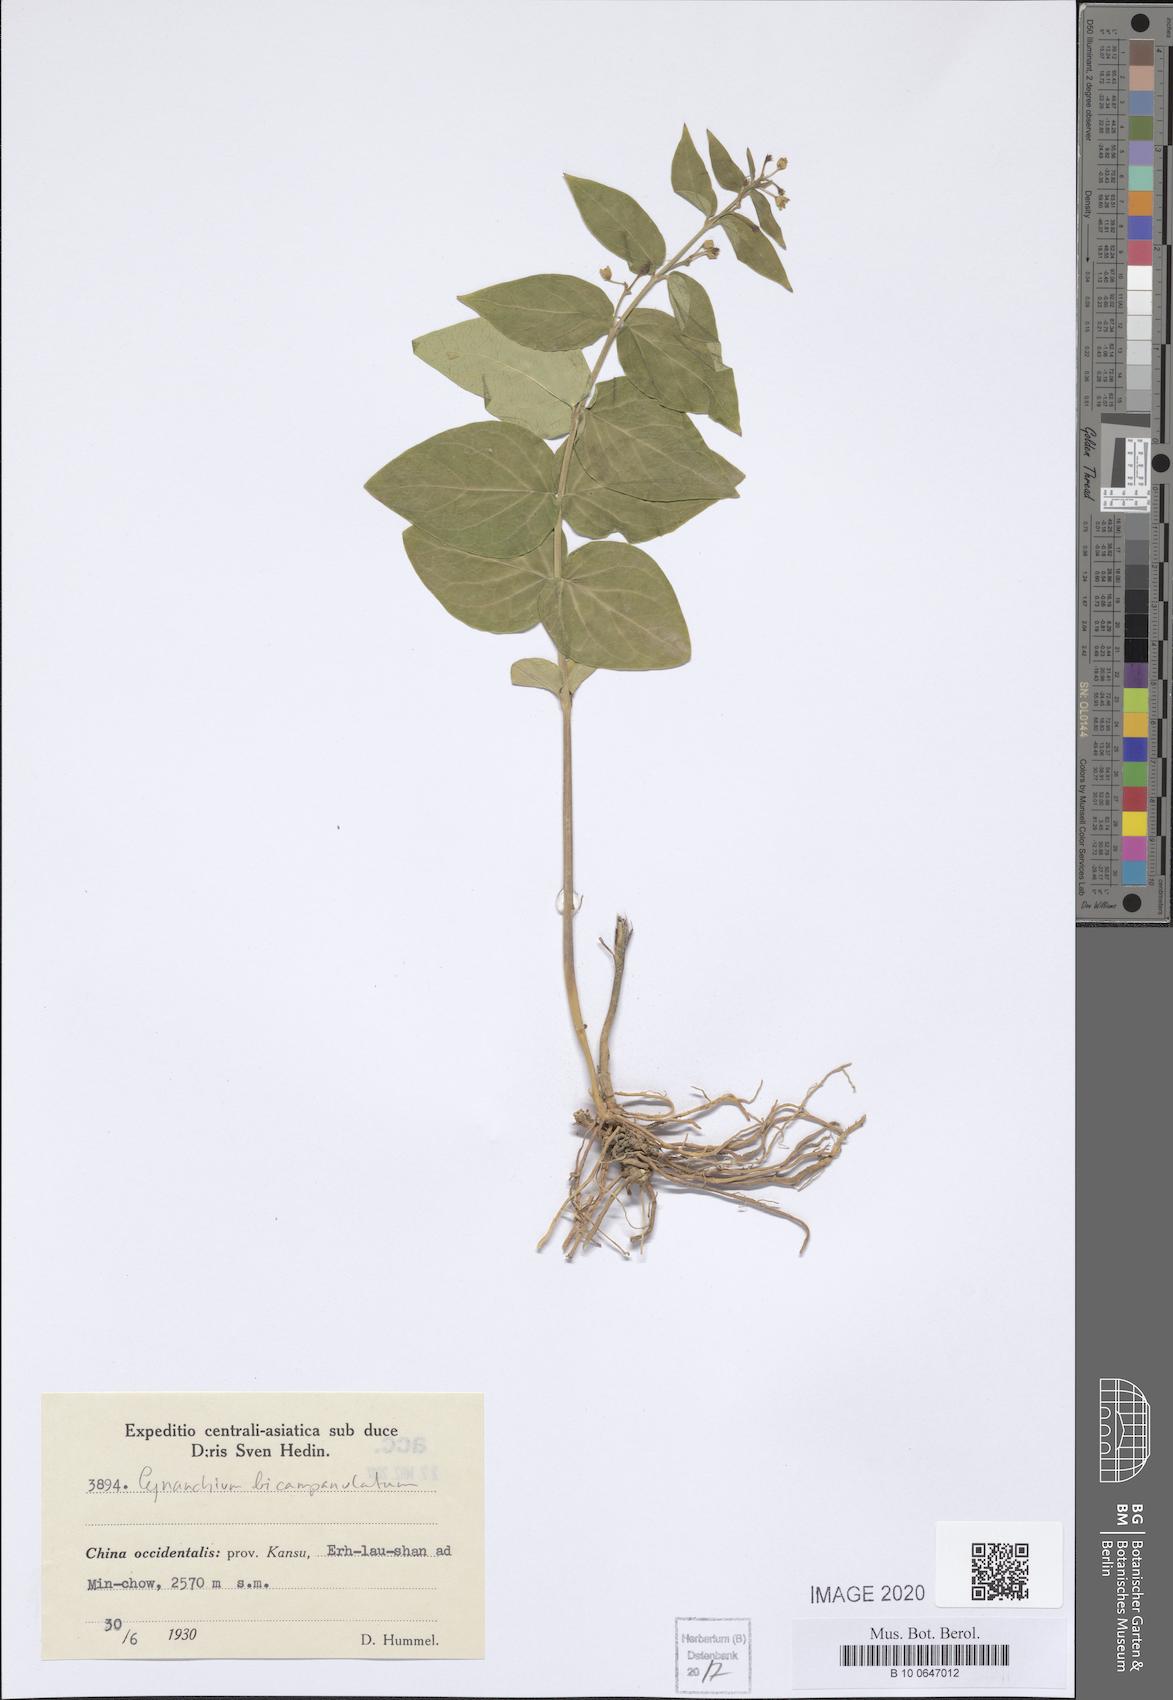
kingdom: Plantae
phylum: Tracheophyta
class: Magnoliopsida
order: Gentianales
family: Apocynaceae
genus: Cynanchum
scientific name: Cynanchum bicampanulatum
